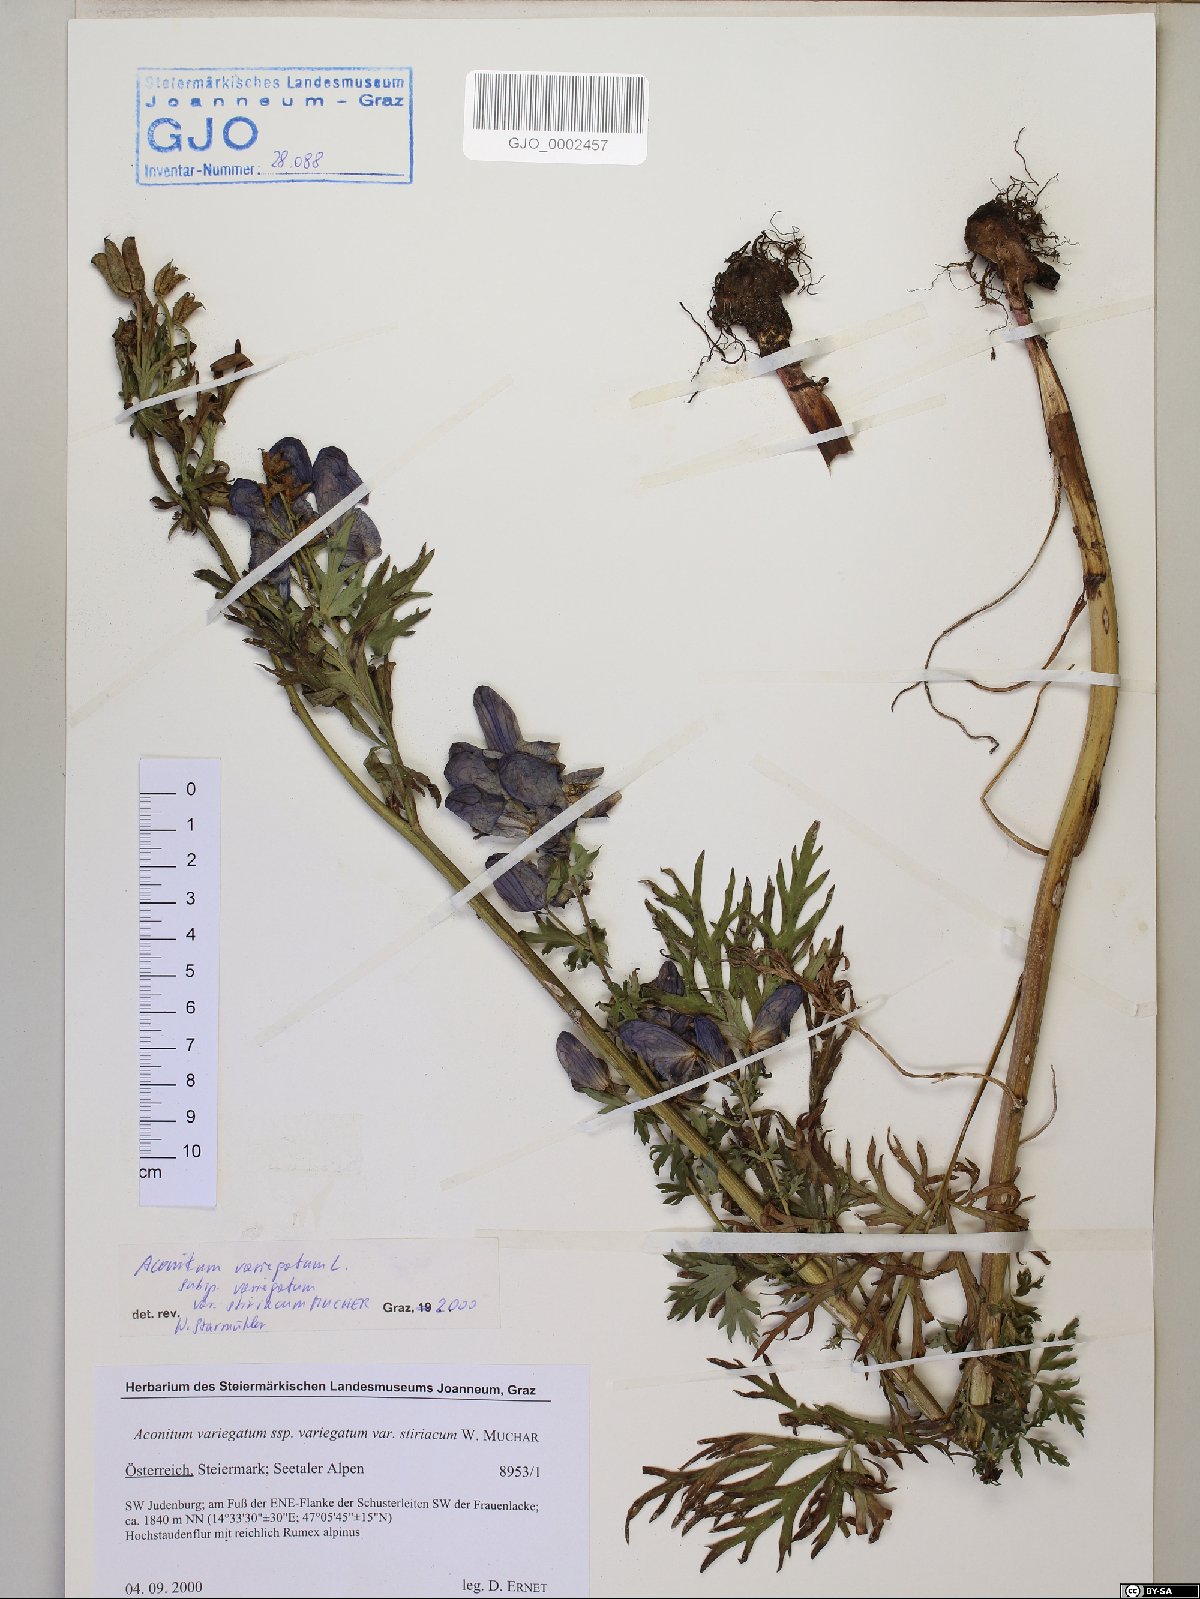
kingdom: Plantae
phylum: Tracheophyta
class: Magnoliopsida
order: Ranunculales
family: Ranunculaceae
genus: Aconitum
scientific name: Aconitum variegatum
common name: Manchurian monkshood
